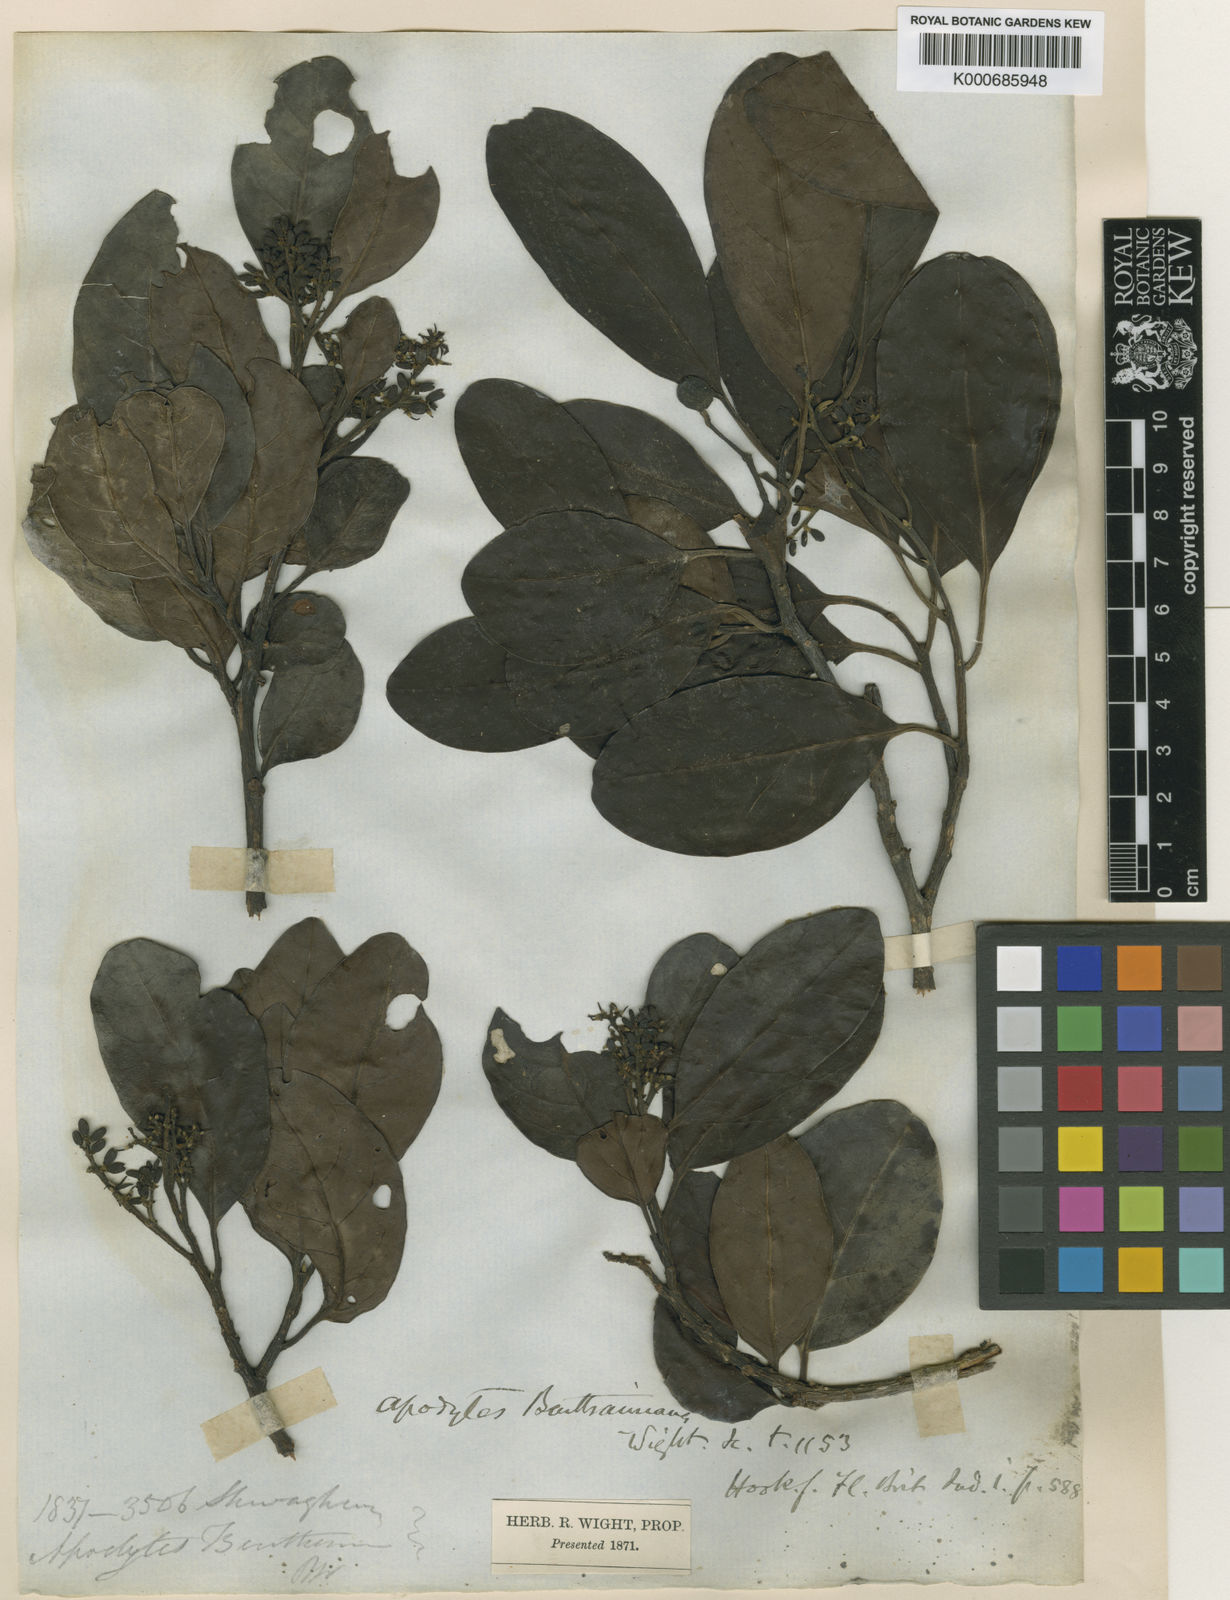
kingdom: Plantae
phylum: Tracheophyta
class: Magnoliopsida
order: Metteniusales
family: Metteniusaceae
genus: Apodytes
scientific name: Apodytes dimidiata
